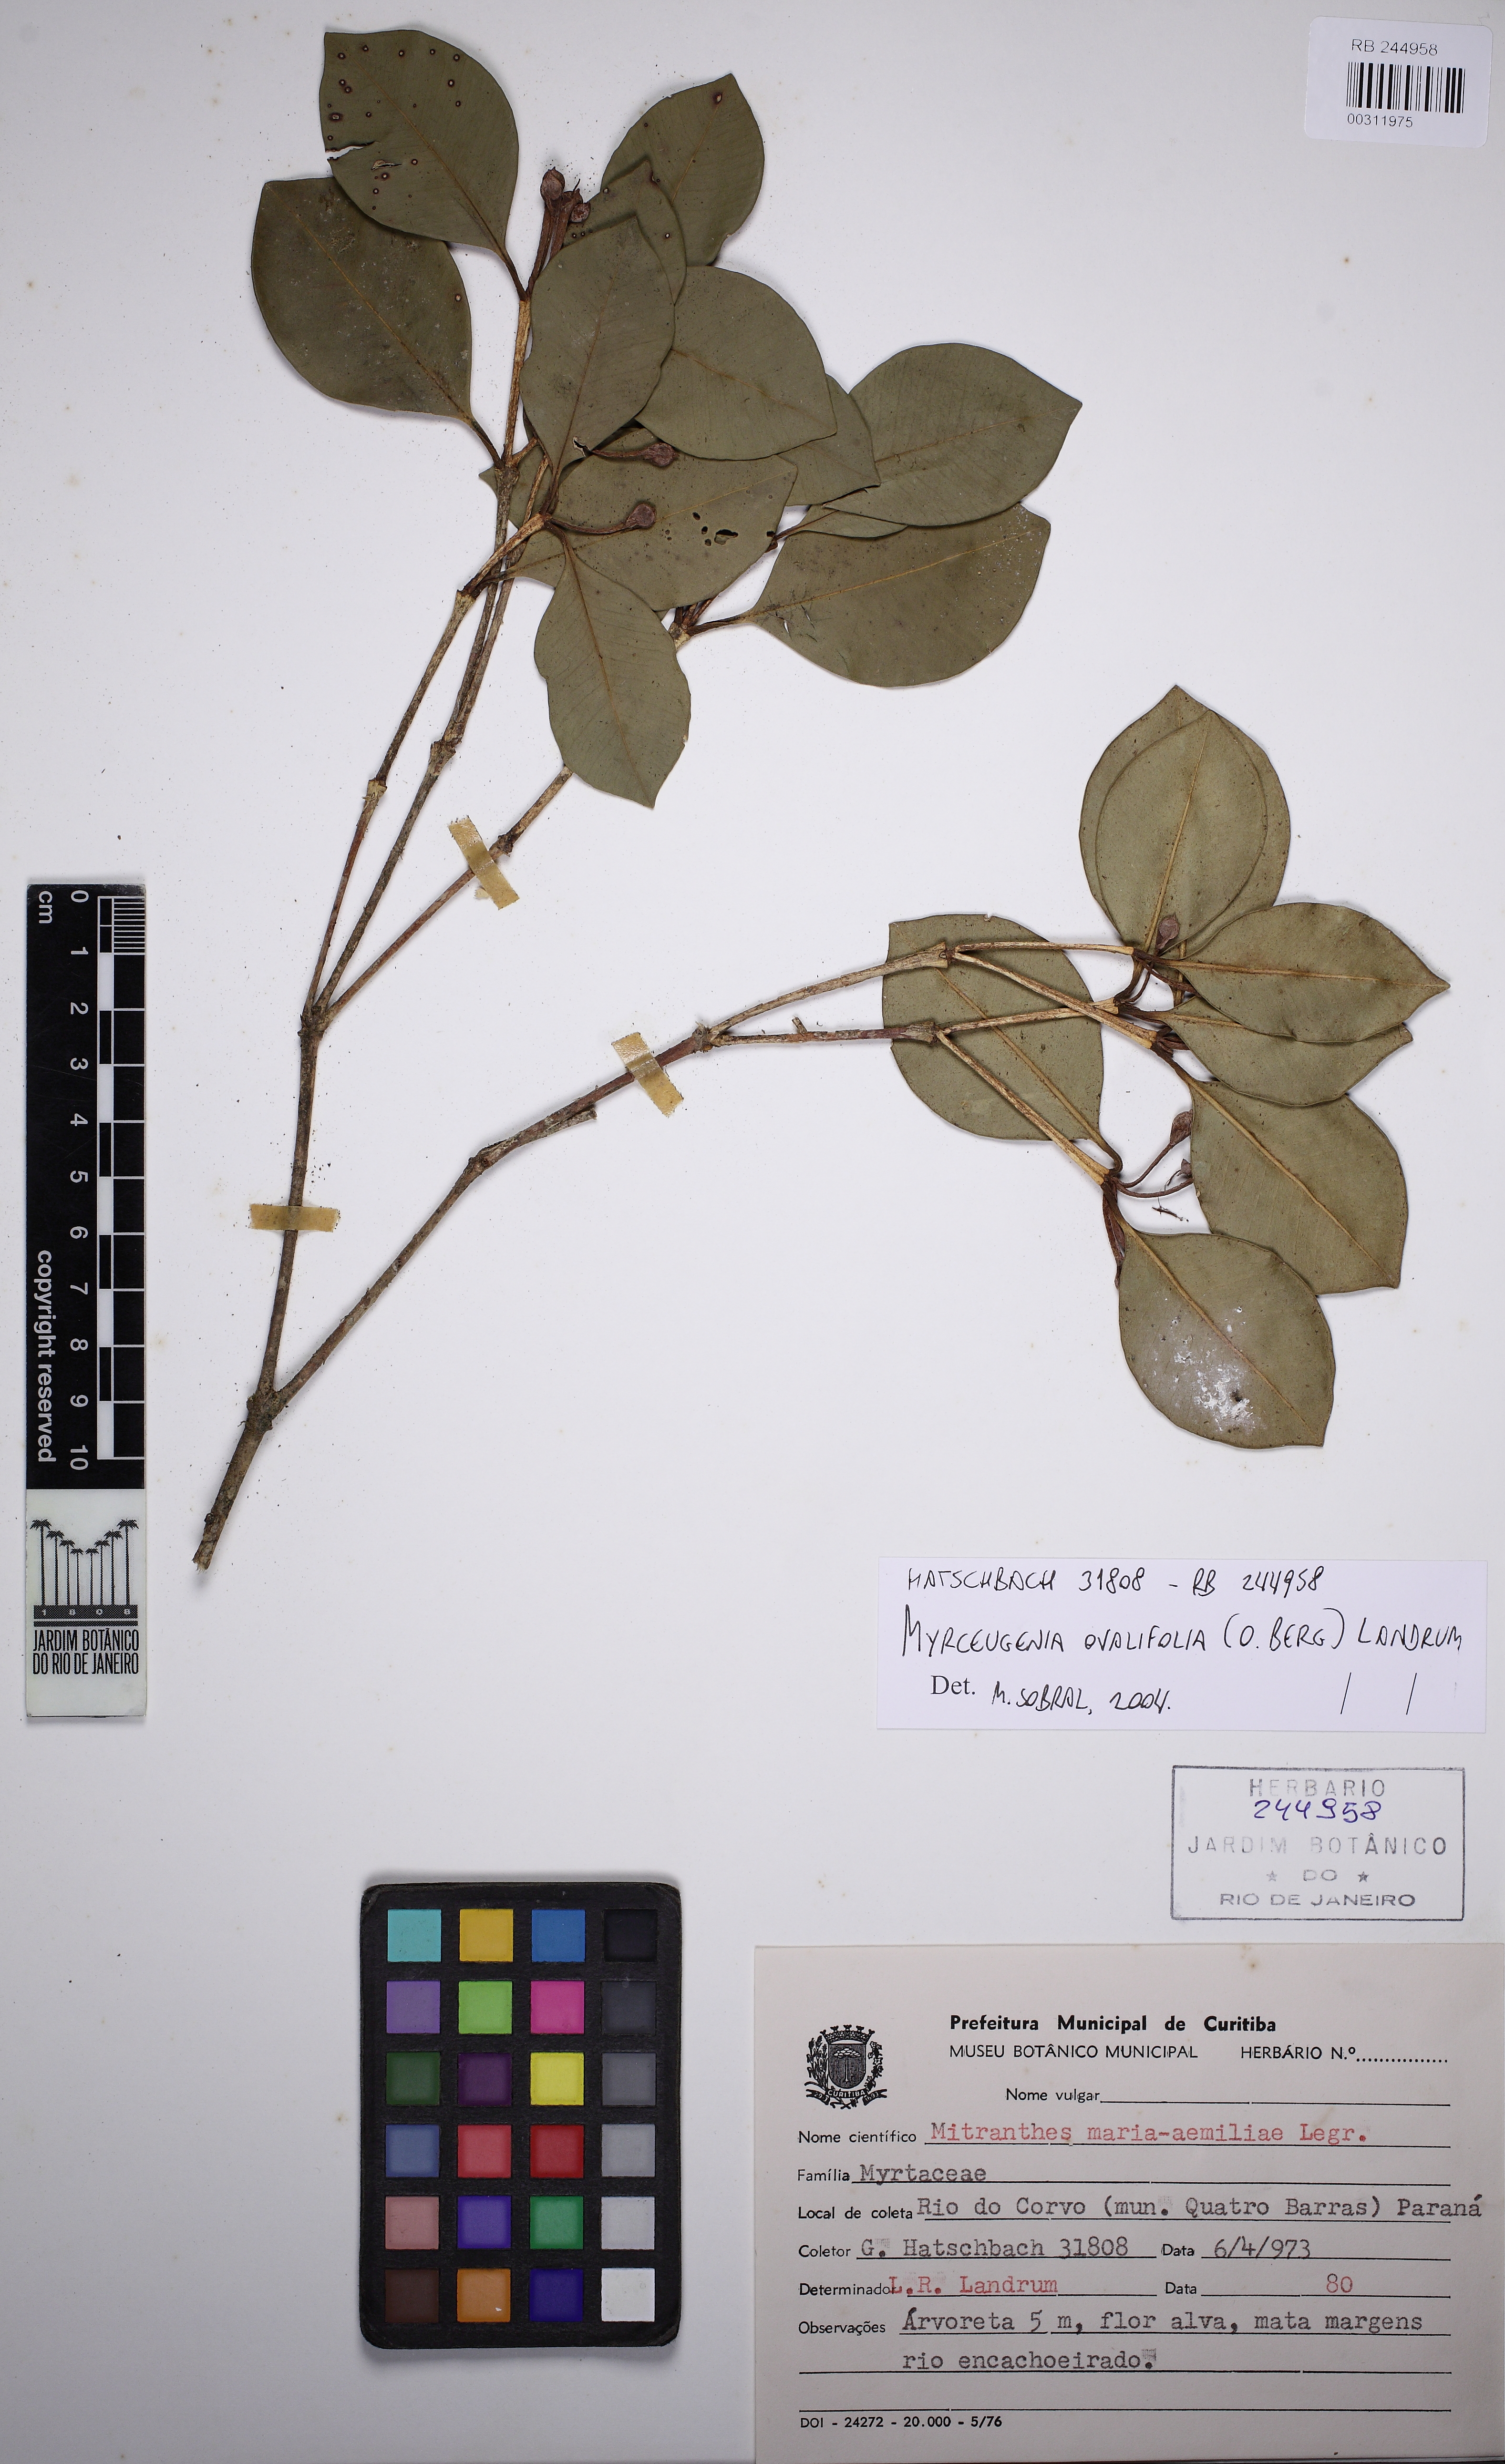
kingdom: Plantae
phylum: Tracheophyta
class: Magnoliopsida
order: Myrtales
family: Myrtaceae
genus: Myrceugenia
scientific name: Myrceugenia ovalifolia
